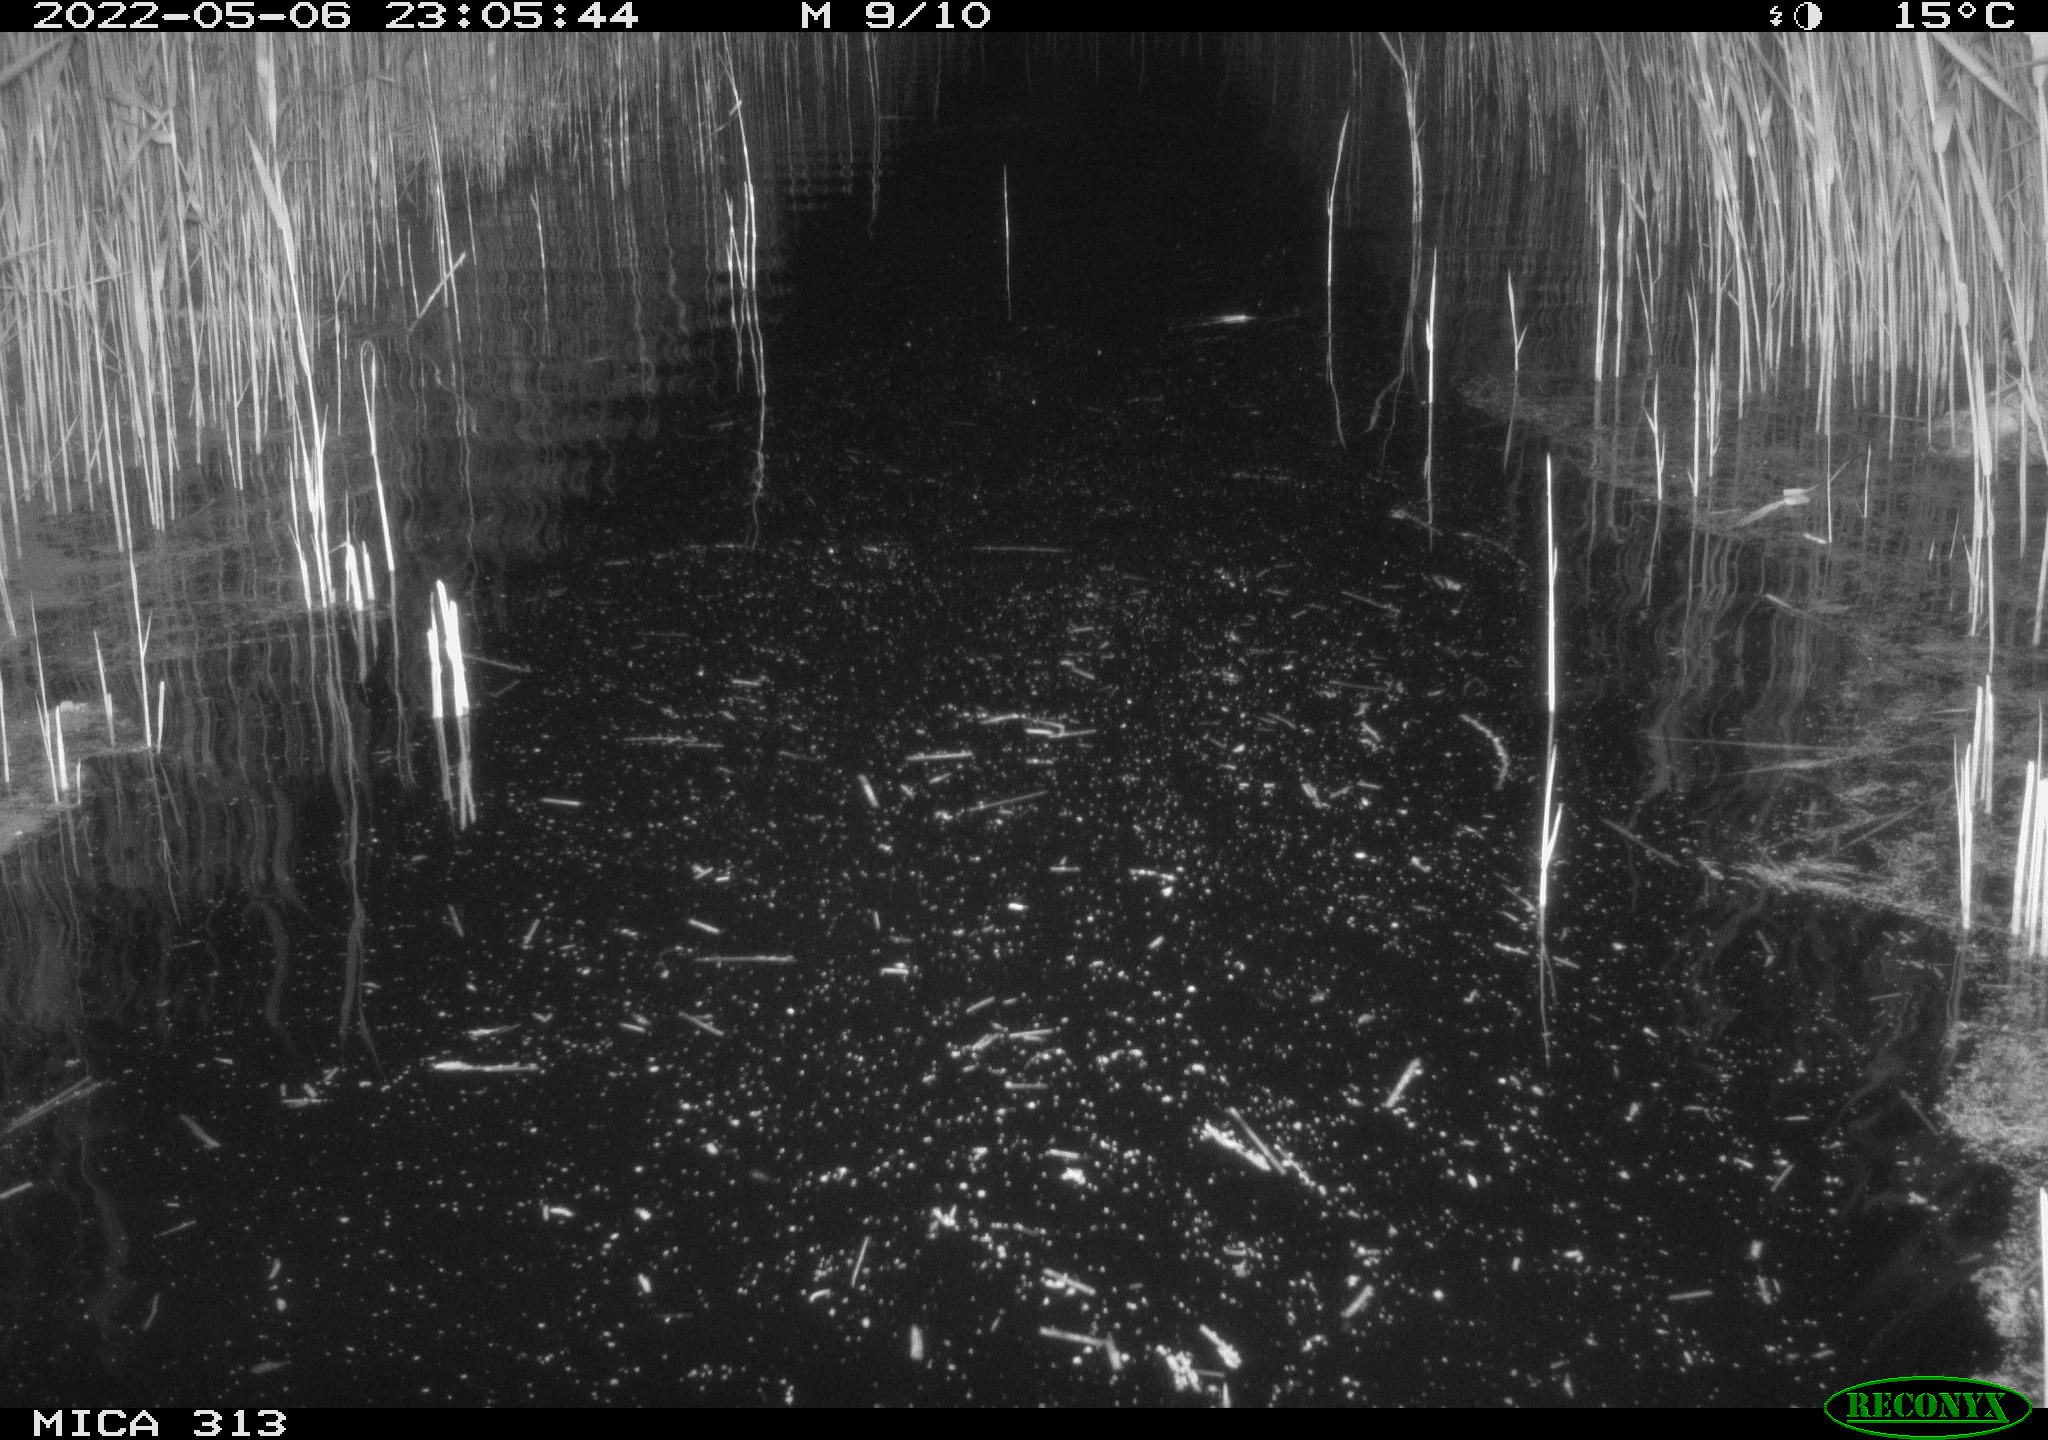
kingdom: Animalia
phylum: Chordata
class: Aves
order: Anseriformes
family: Anatidae
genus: Anas
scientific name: Anas platyrhynchos
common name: Mallard
